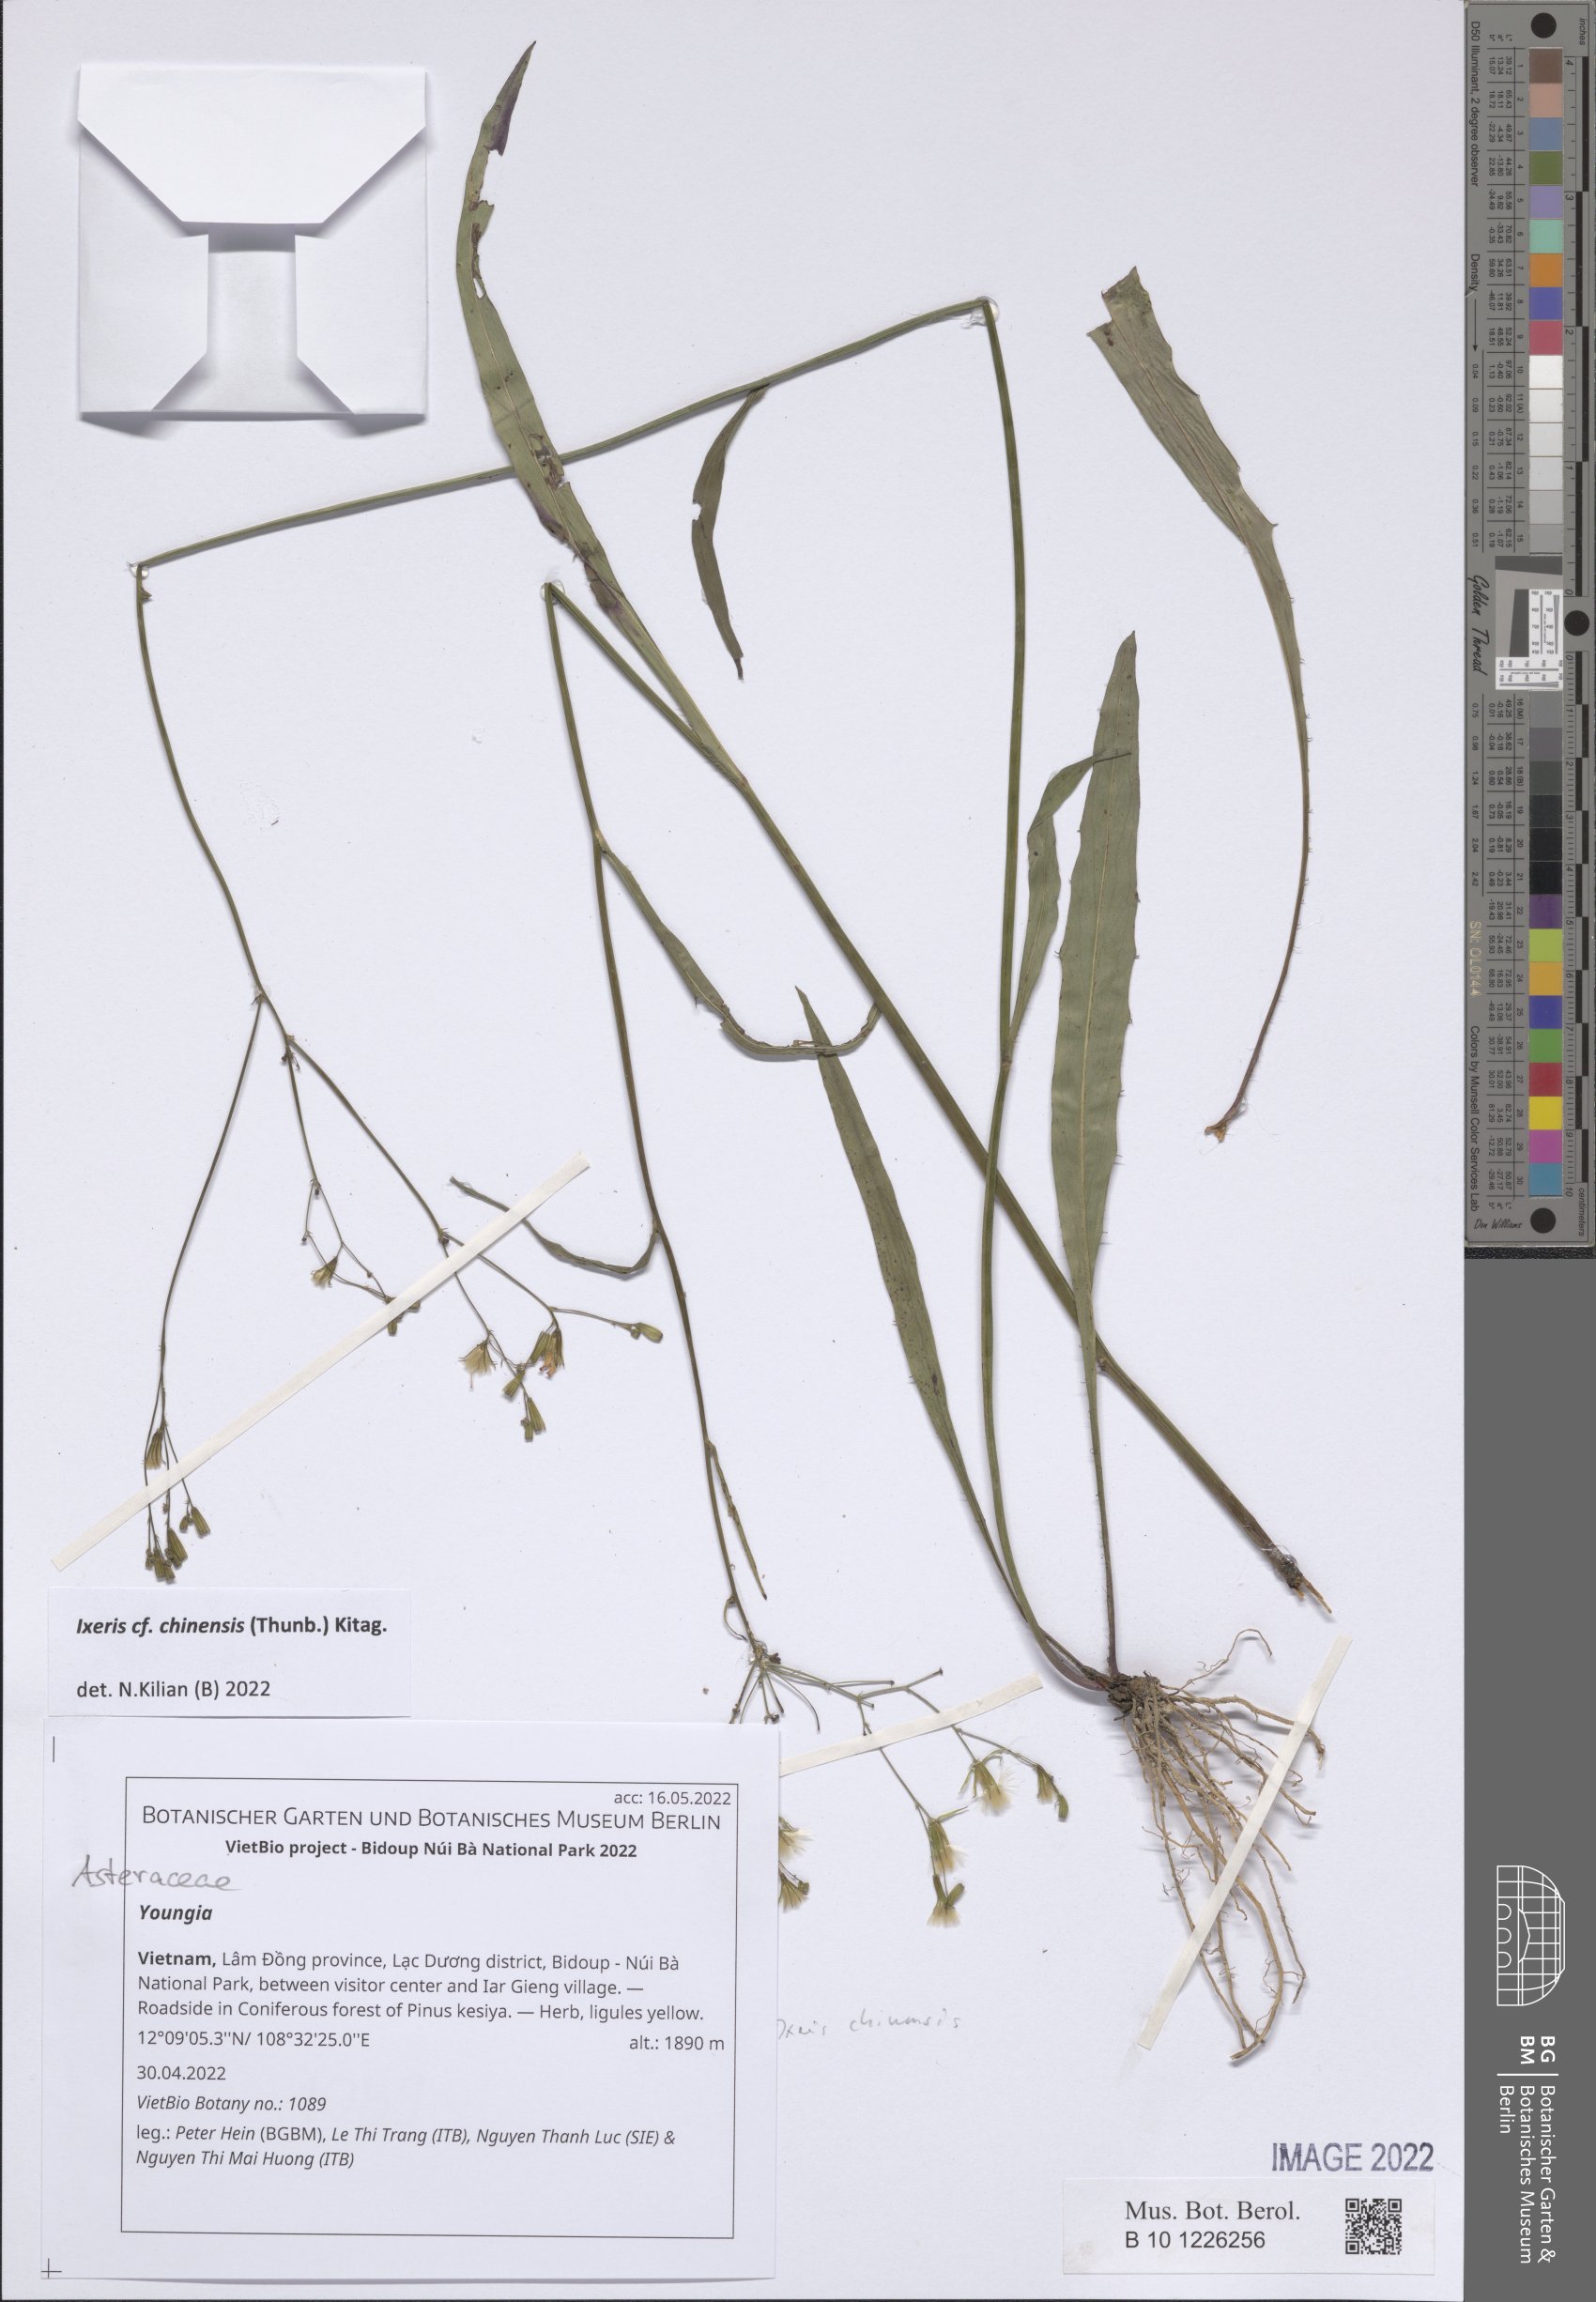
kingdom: Plantae
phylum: Tracheophyta
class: Magnoliopsida
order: Asterales
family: Asteraceae
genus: Youngia
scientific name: Youngia
